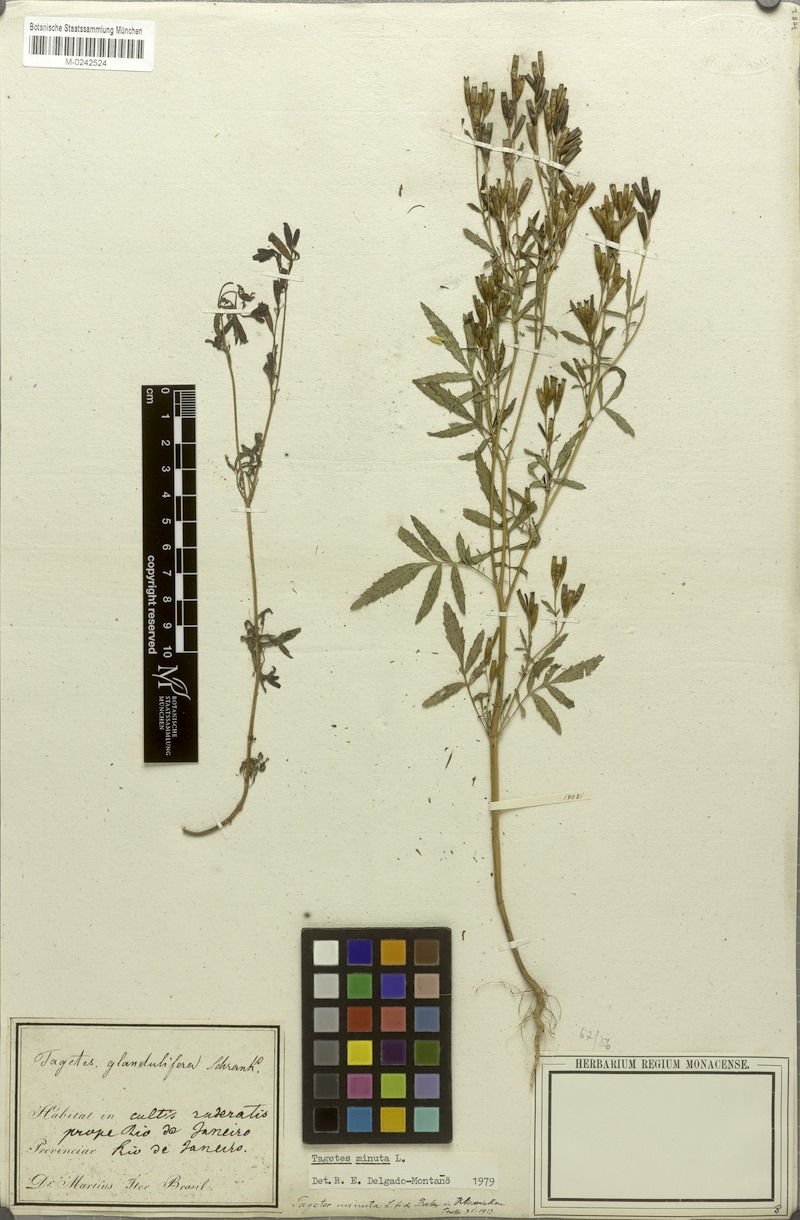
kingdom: Plantae
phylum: Tracheophyta
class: Magnoliopsida
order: Asterales
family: Asteraceae
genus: Tagetes
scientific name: Tagetes minuta
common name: Muster john henry
